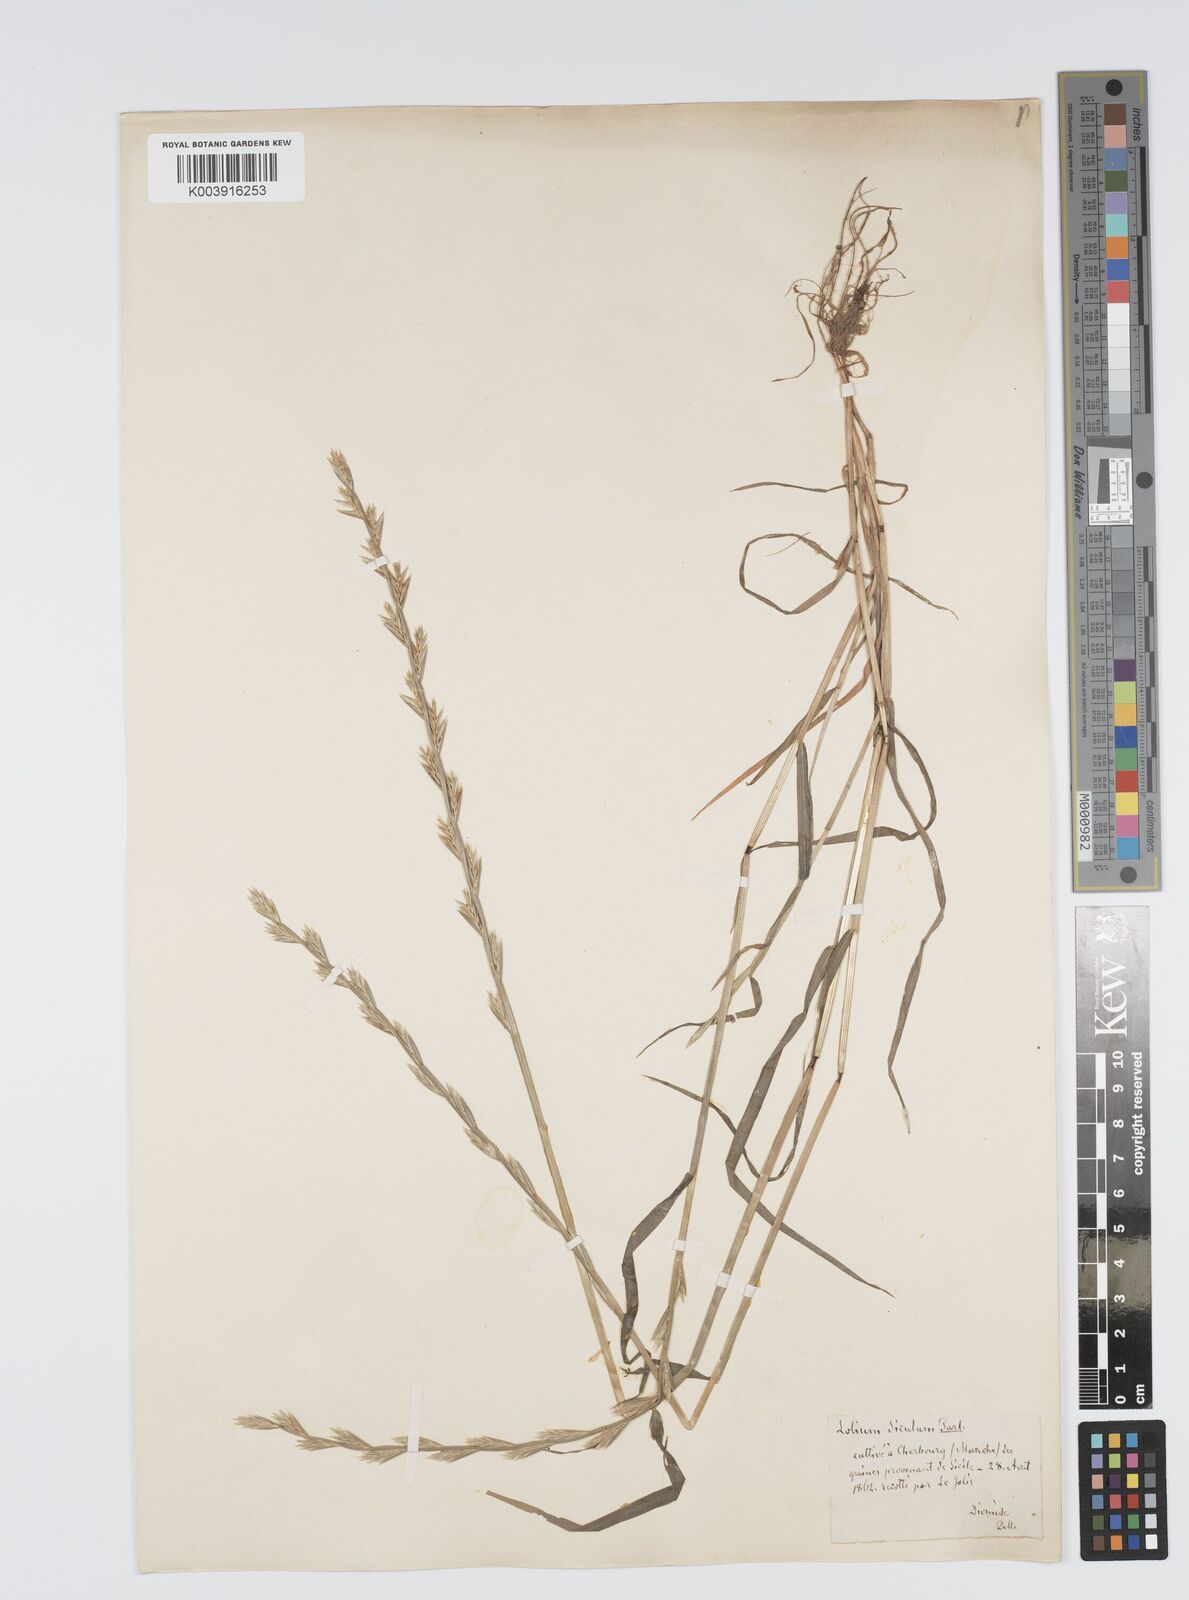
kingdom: Plantae
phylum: Tracheophyta
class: Liliopsida
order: Poales
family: Poaceae
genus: Lolium
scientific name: Lolium rigidum
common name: Wimmera ryegrass
